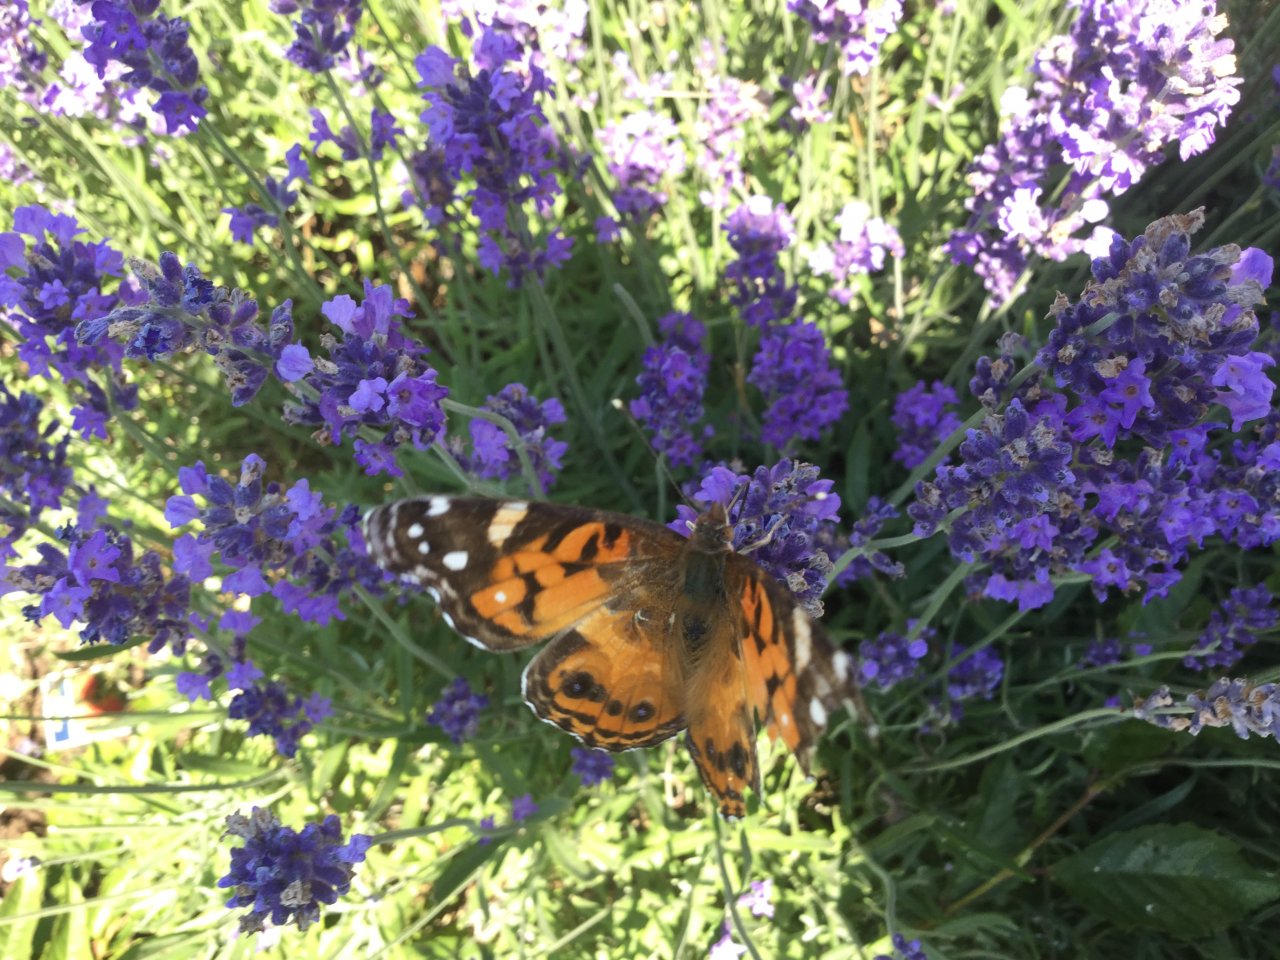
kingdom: Animalia
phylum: Arthropoda
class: Insecta
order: Lepidoptera
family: Nymphalidae
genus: Vanessa
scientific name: Vanessa virginiensis
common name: American Lady
